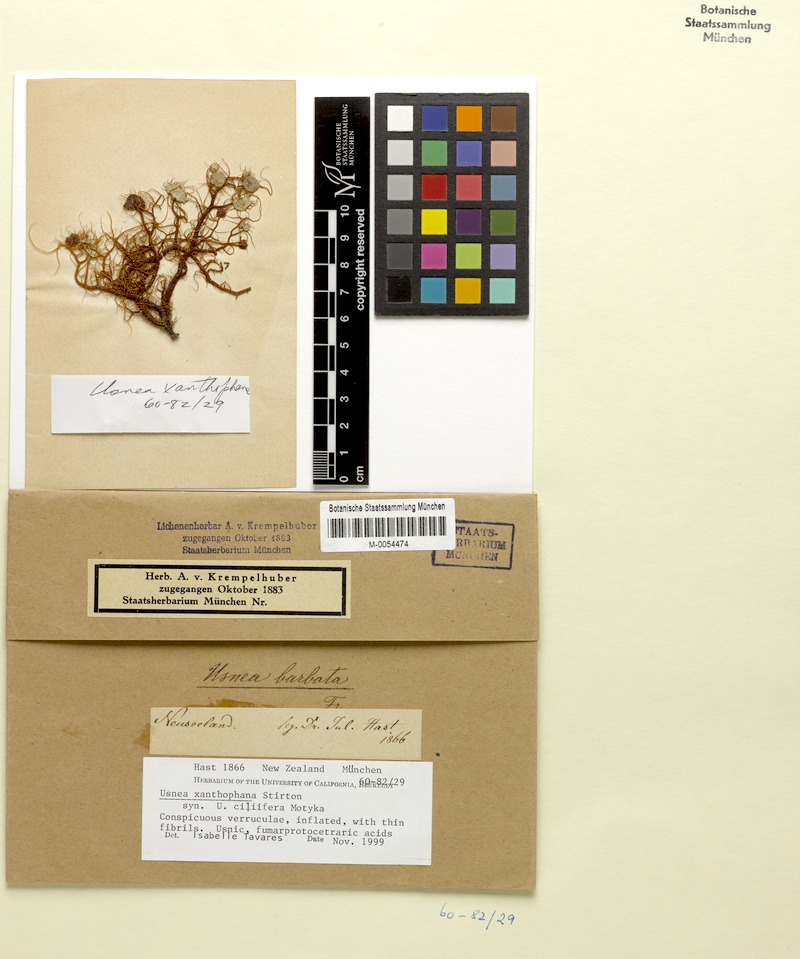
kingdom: Fungi
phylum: Ascomycota
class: Lecanoromycetes
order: Lecanorales
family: Parmeliaceae
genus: Usnea
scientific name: Usnea
